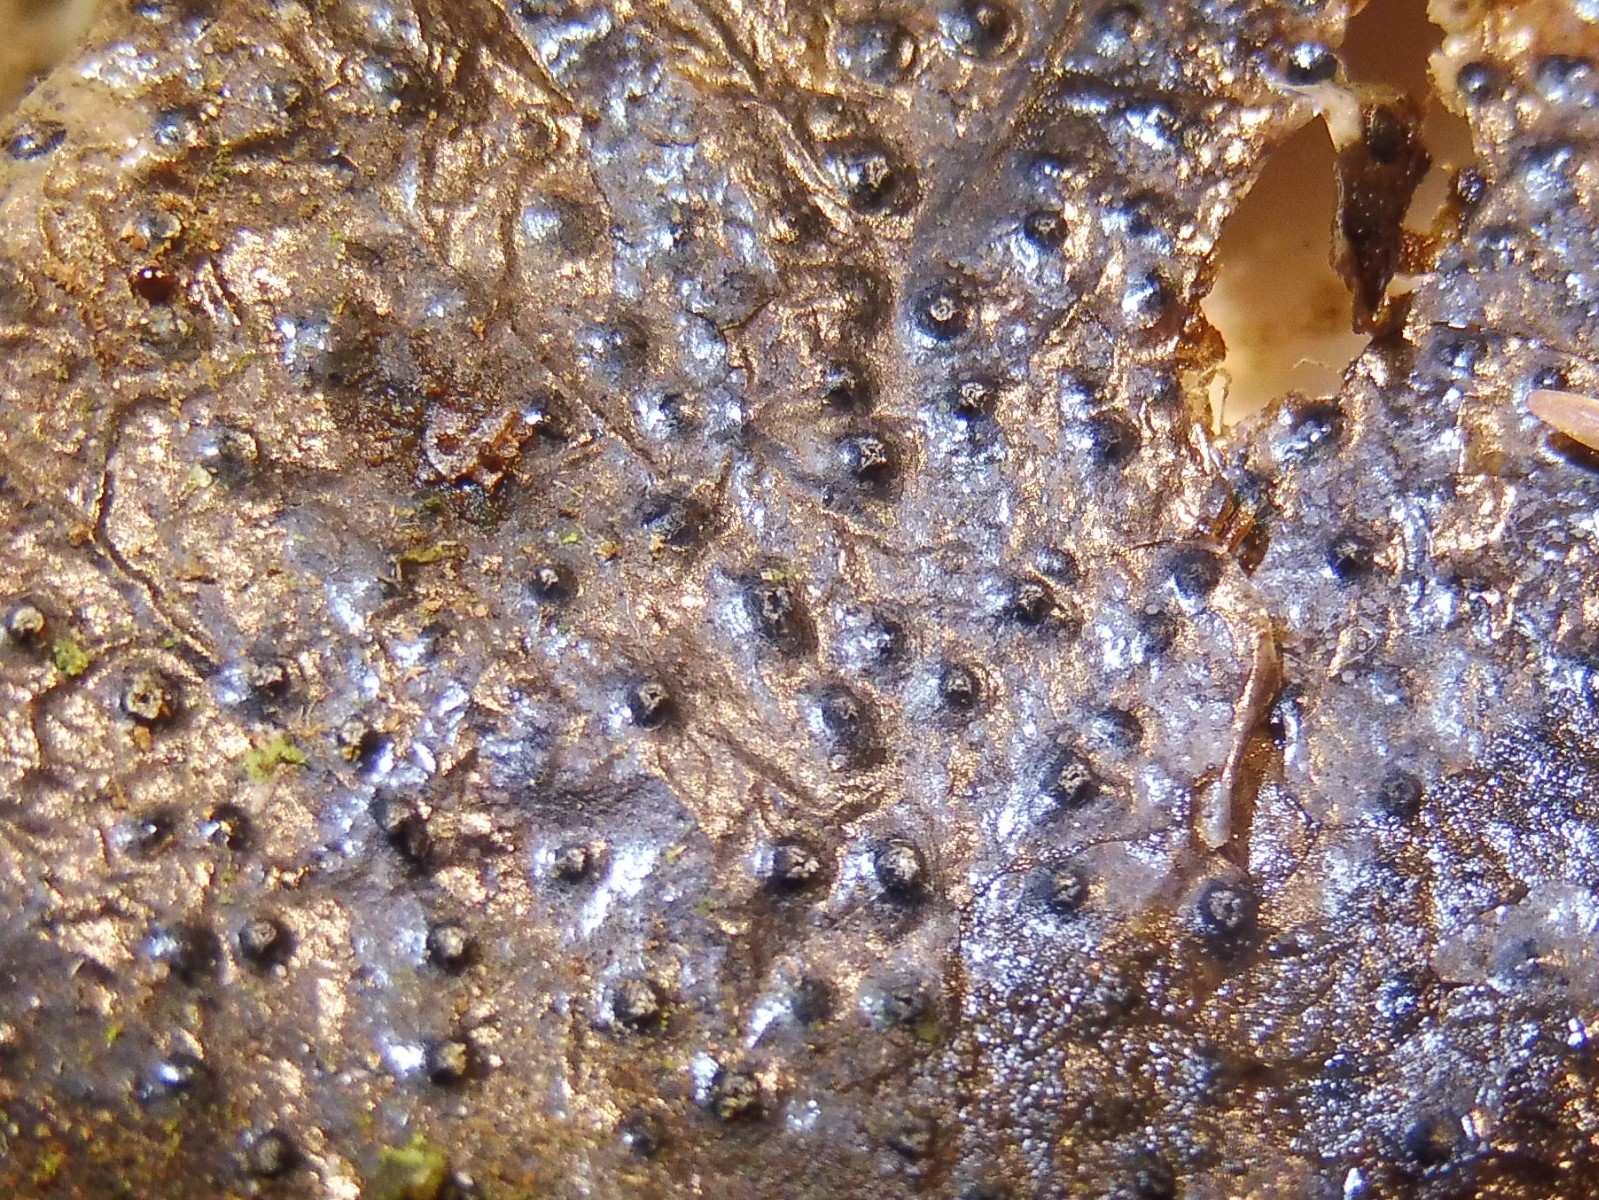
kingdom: Fungi
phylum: Ascomycota
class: Leotiomycetes
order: Phacidiales
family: Phacidiaceae
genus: Phacidium
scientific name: Phacidium lauri
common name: kristtorn-tandskive
